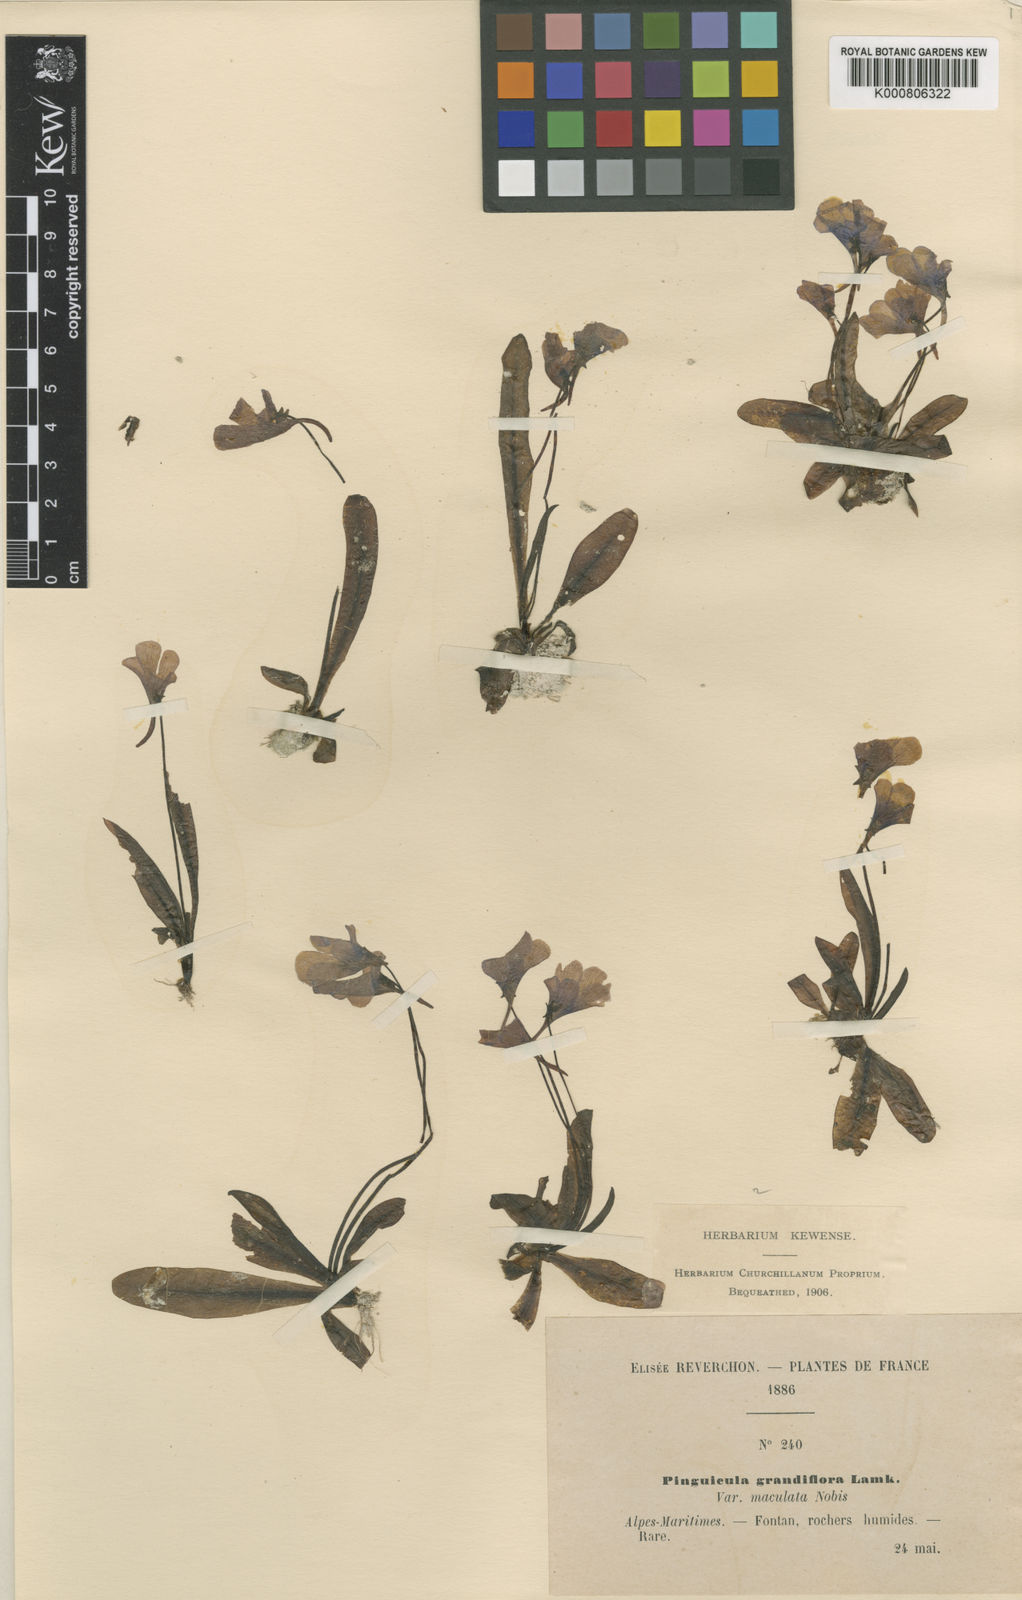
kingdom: Plantae
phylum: Tracheophyta
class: Magnoliopsida
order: Lamiales
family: Lentibulariaceae
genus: Pinguicula
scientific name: Pinguicula grandiflora
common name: Large-flowered butterwort
